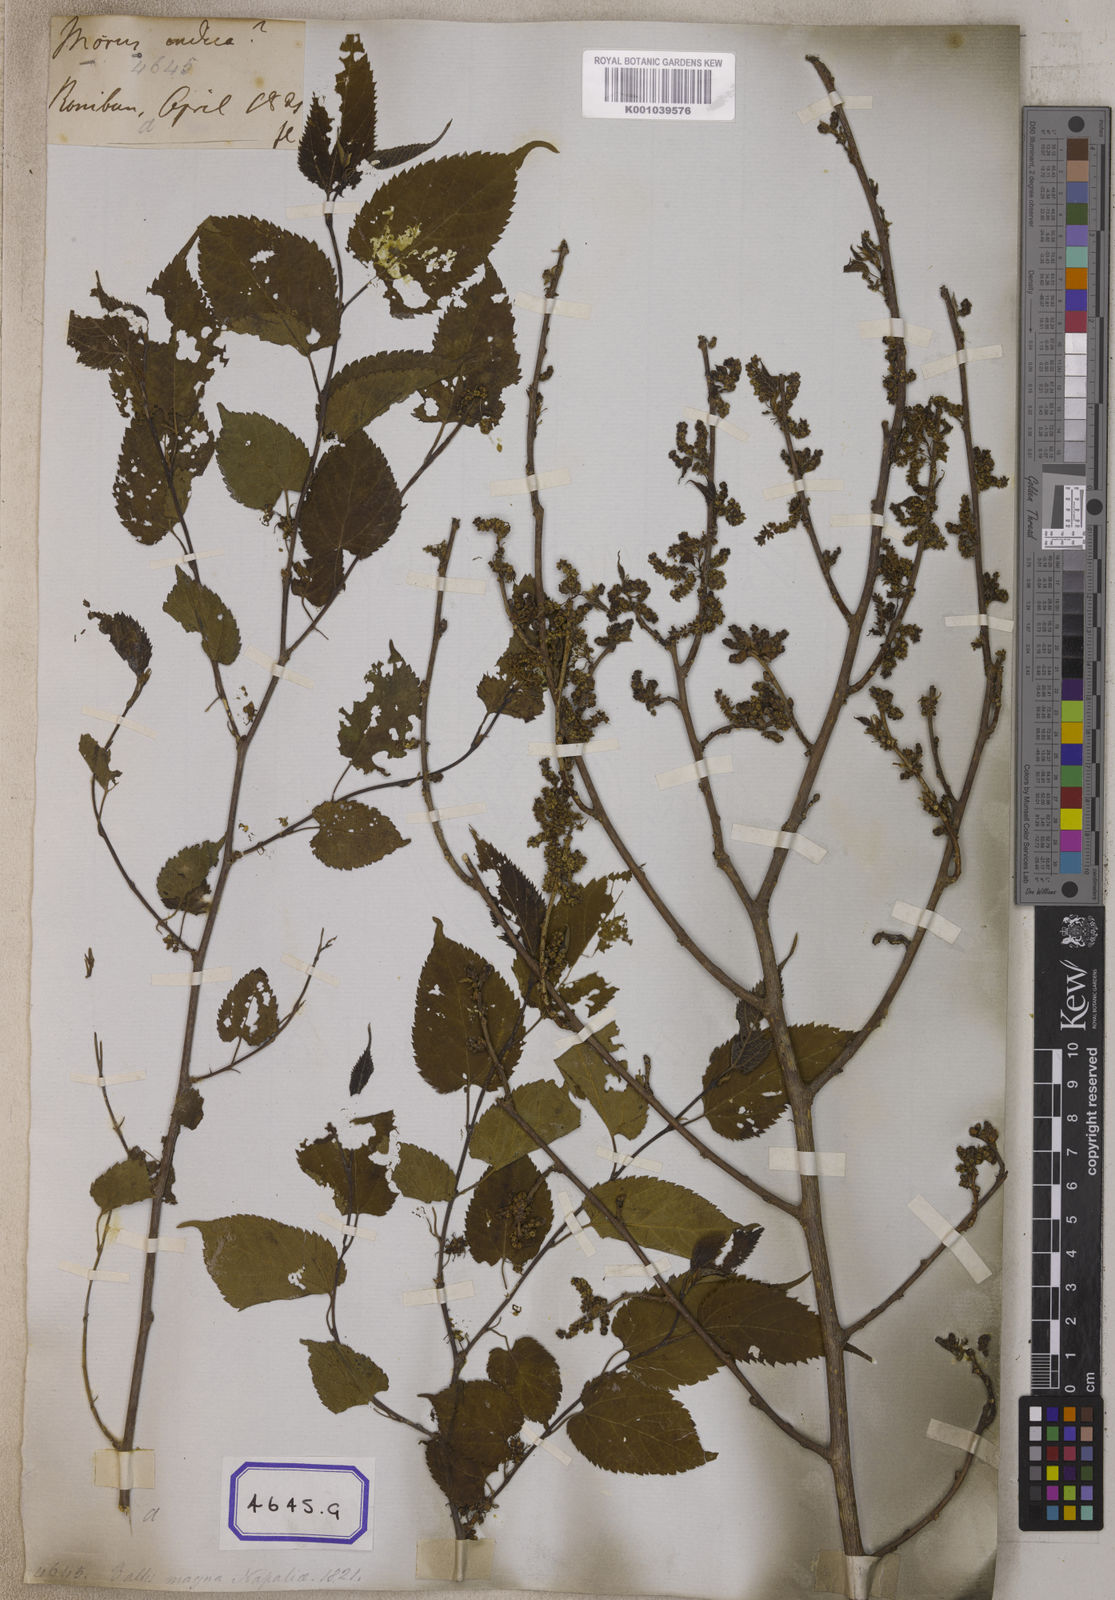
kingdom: Plantae
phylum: Tracheophyta
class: Magnoliopsida
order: Rosales
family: Moraceae
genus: Morus
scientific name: Morus indica
